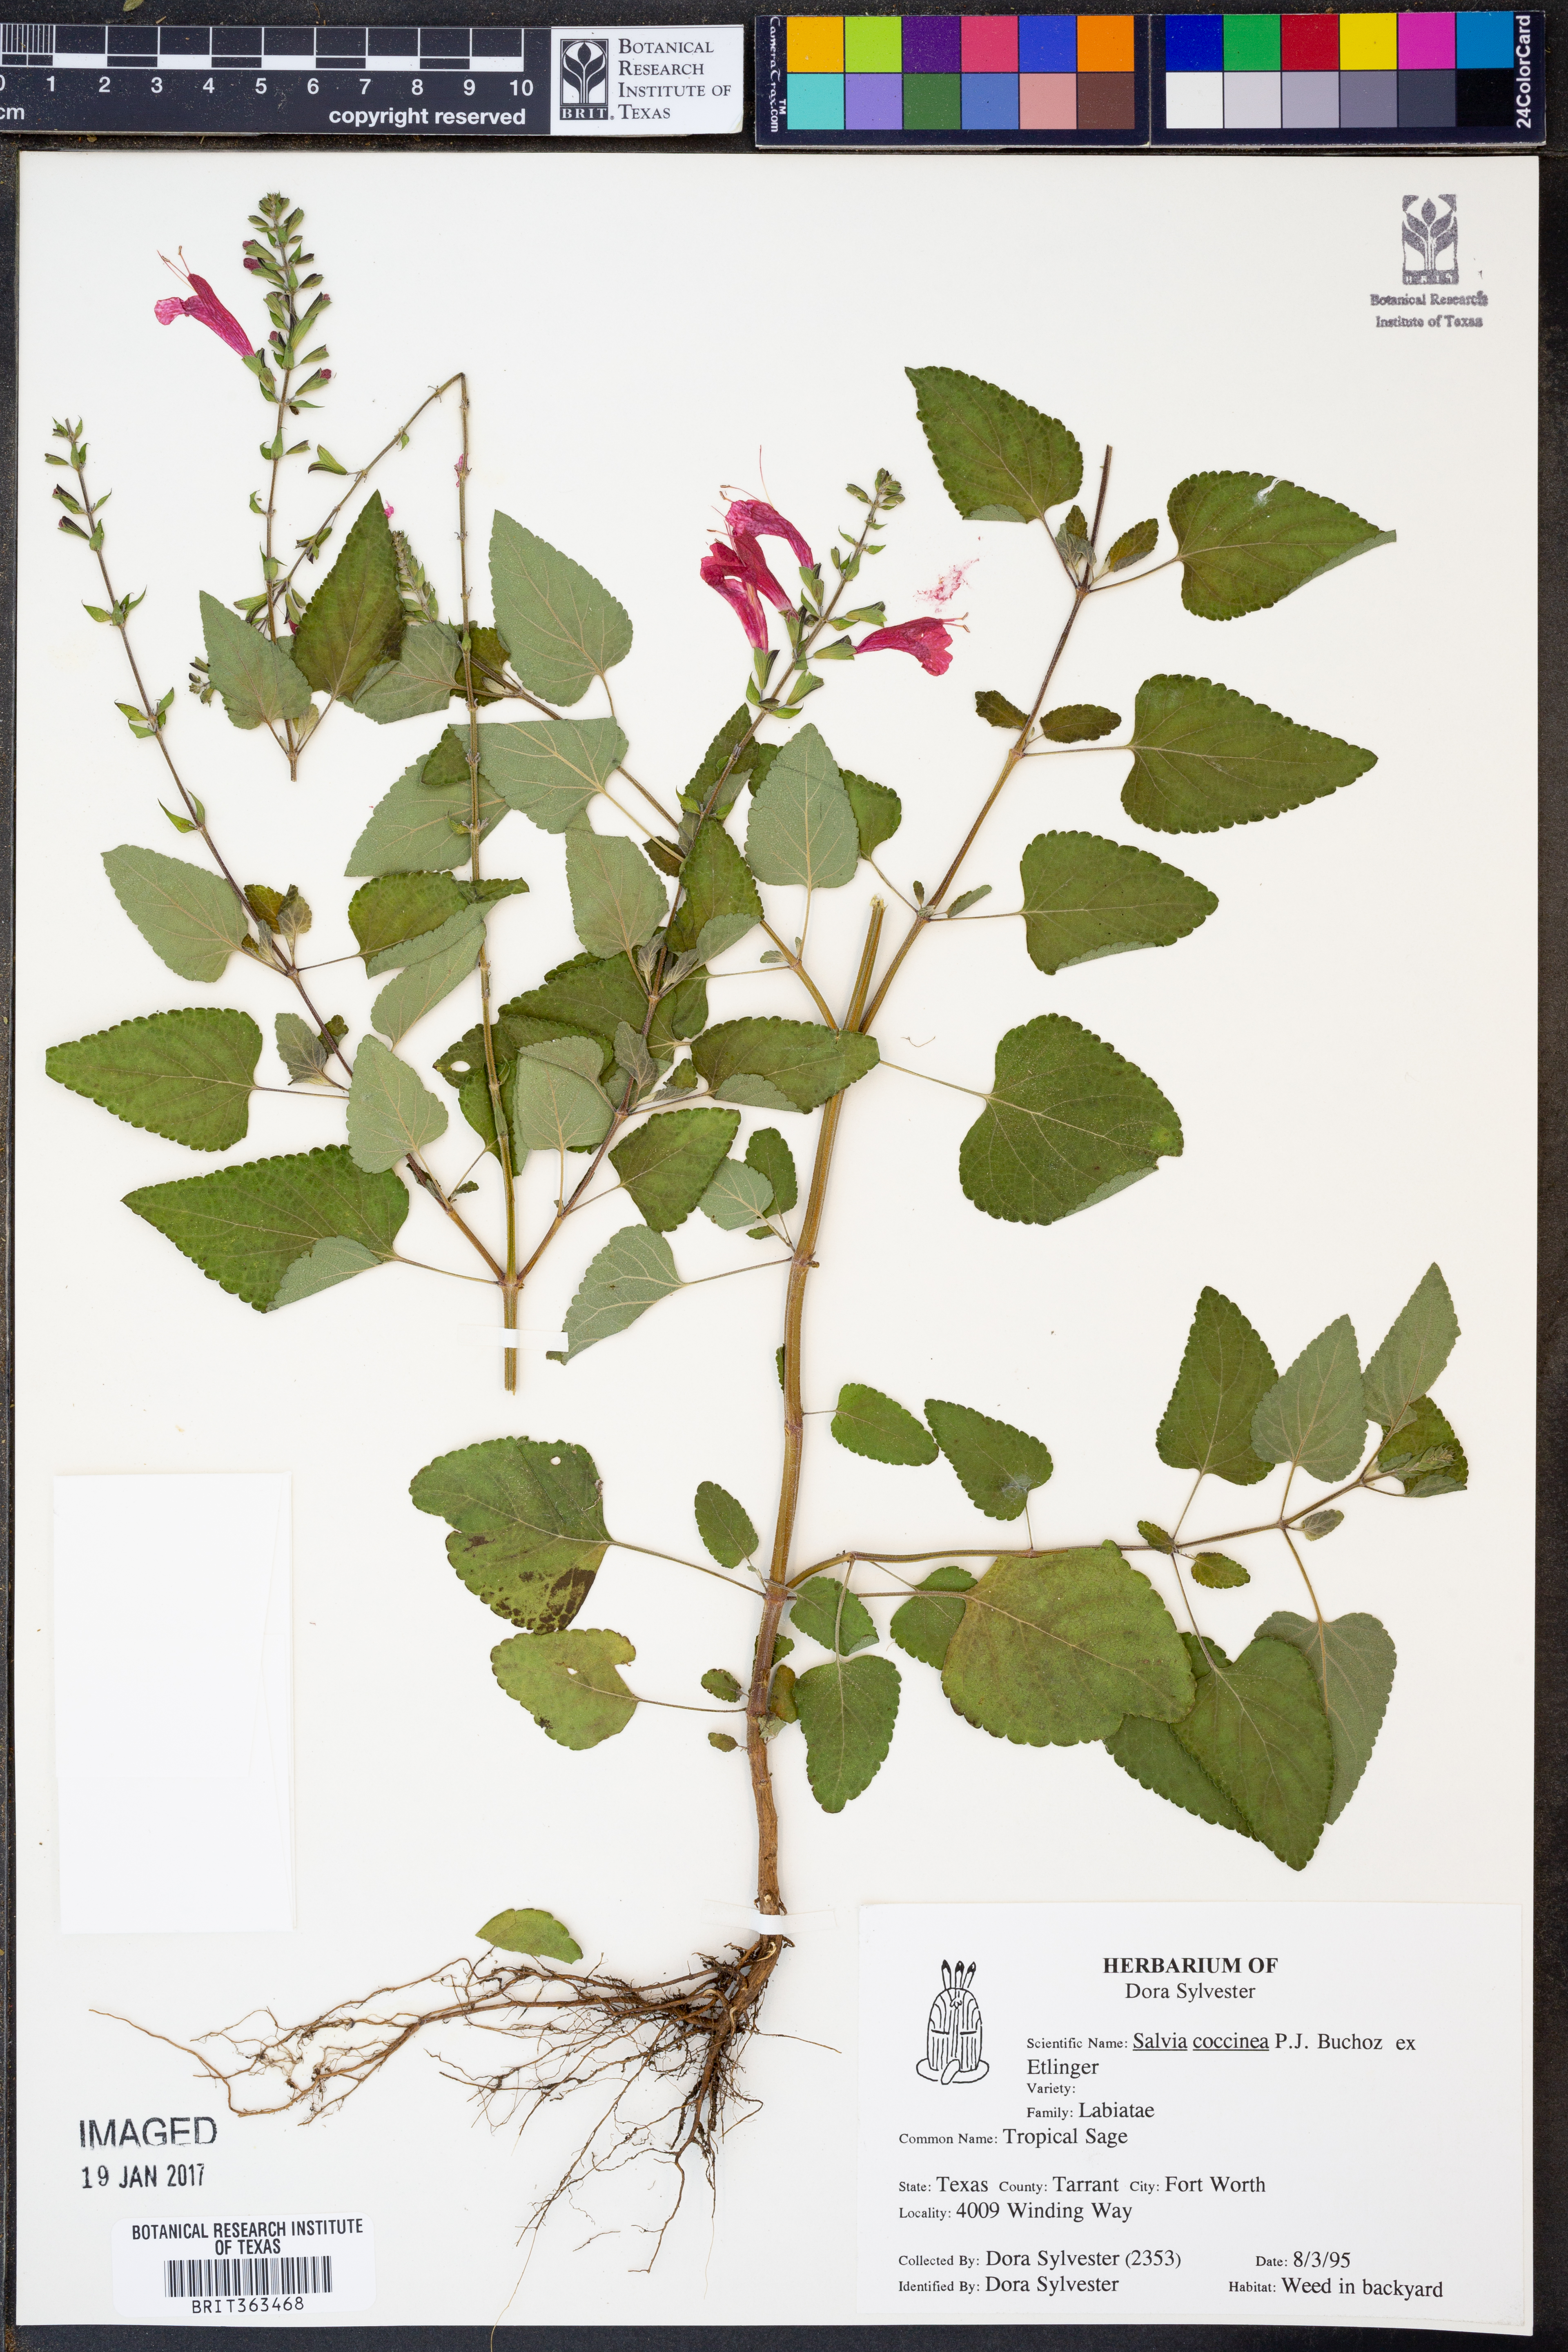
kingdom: Plantae
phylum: Tracheophyta
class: Magnoliopsida
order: Lamiales
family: Lamiaceae
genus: Salvia
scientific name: Salvia coccinea
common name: Blood sage
